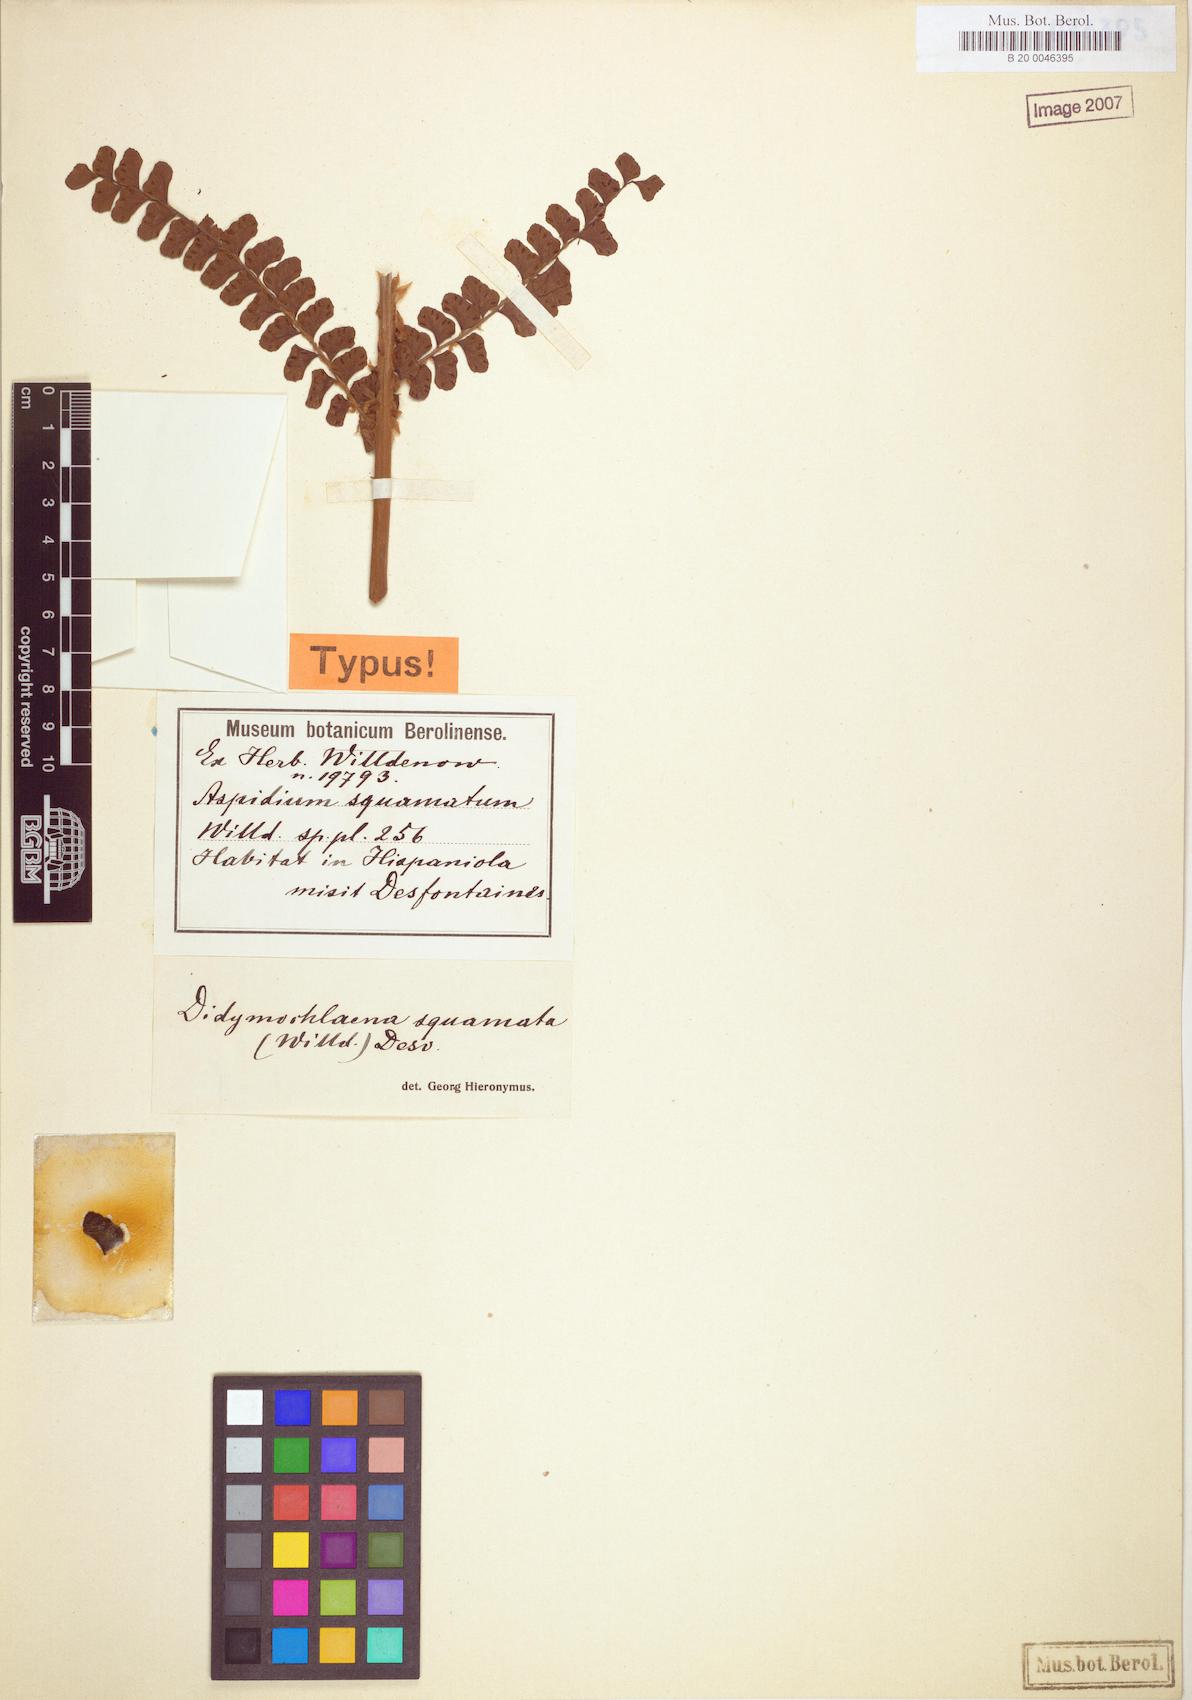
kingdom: Plantae
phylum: Tracheophyta
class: Polypodiopsida
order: Polypodiales
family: Didymochlaenaceae
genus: Didymochlaena
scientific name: Didymochlaena truncatula
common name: Mahogany fern
